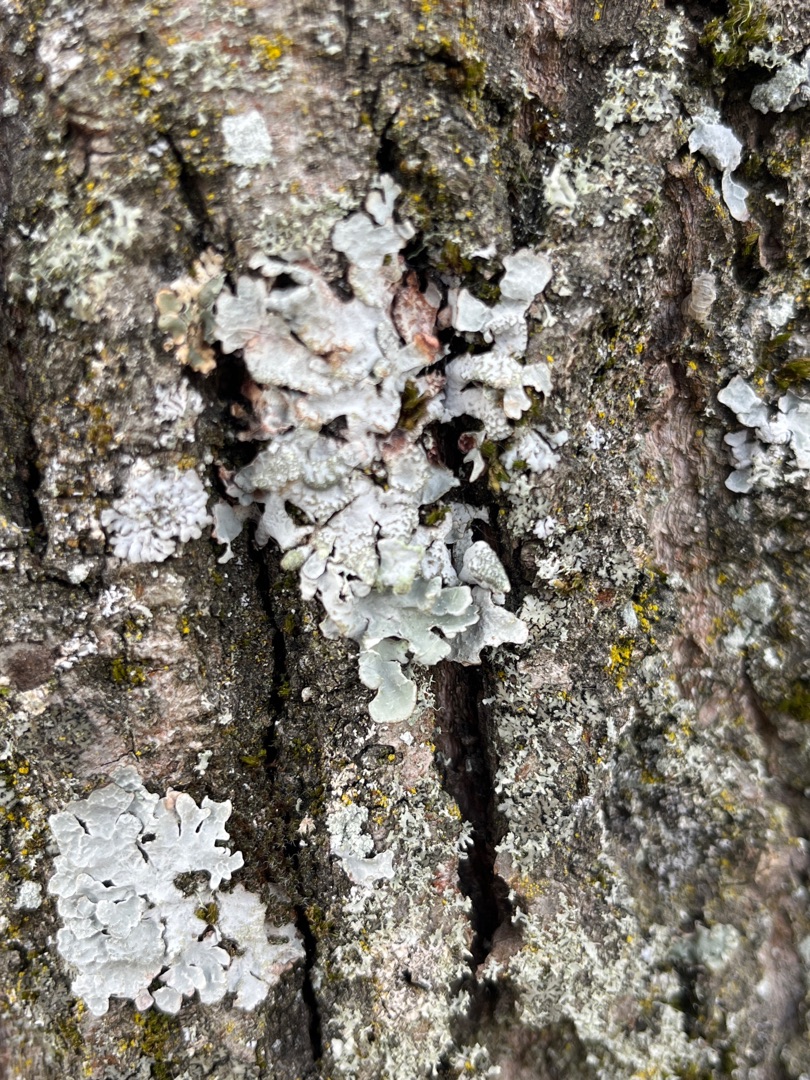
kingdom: Fungi
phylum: Ascomycota
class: Lecanoromycetes
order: Lecanorales
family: Parmeliaceae
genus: Parmelia
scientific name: Parmelia sulcata
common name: Rynket skållav
